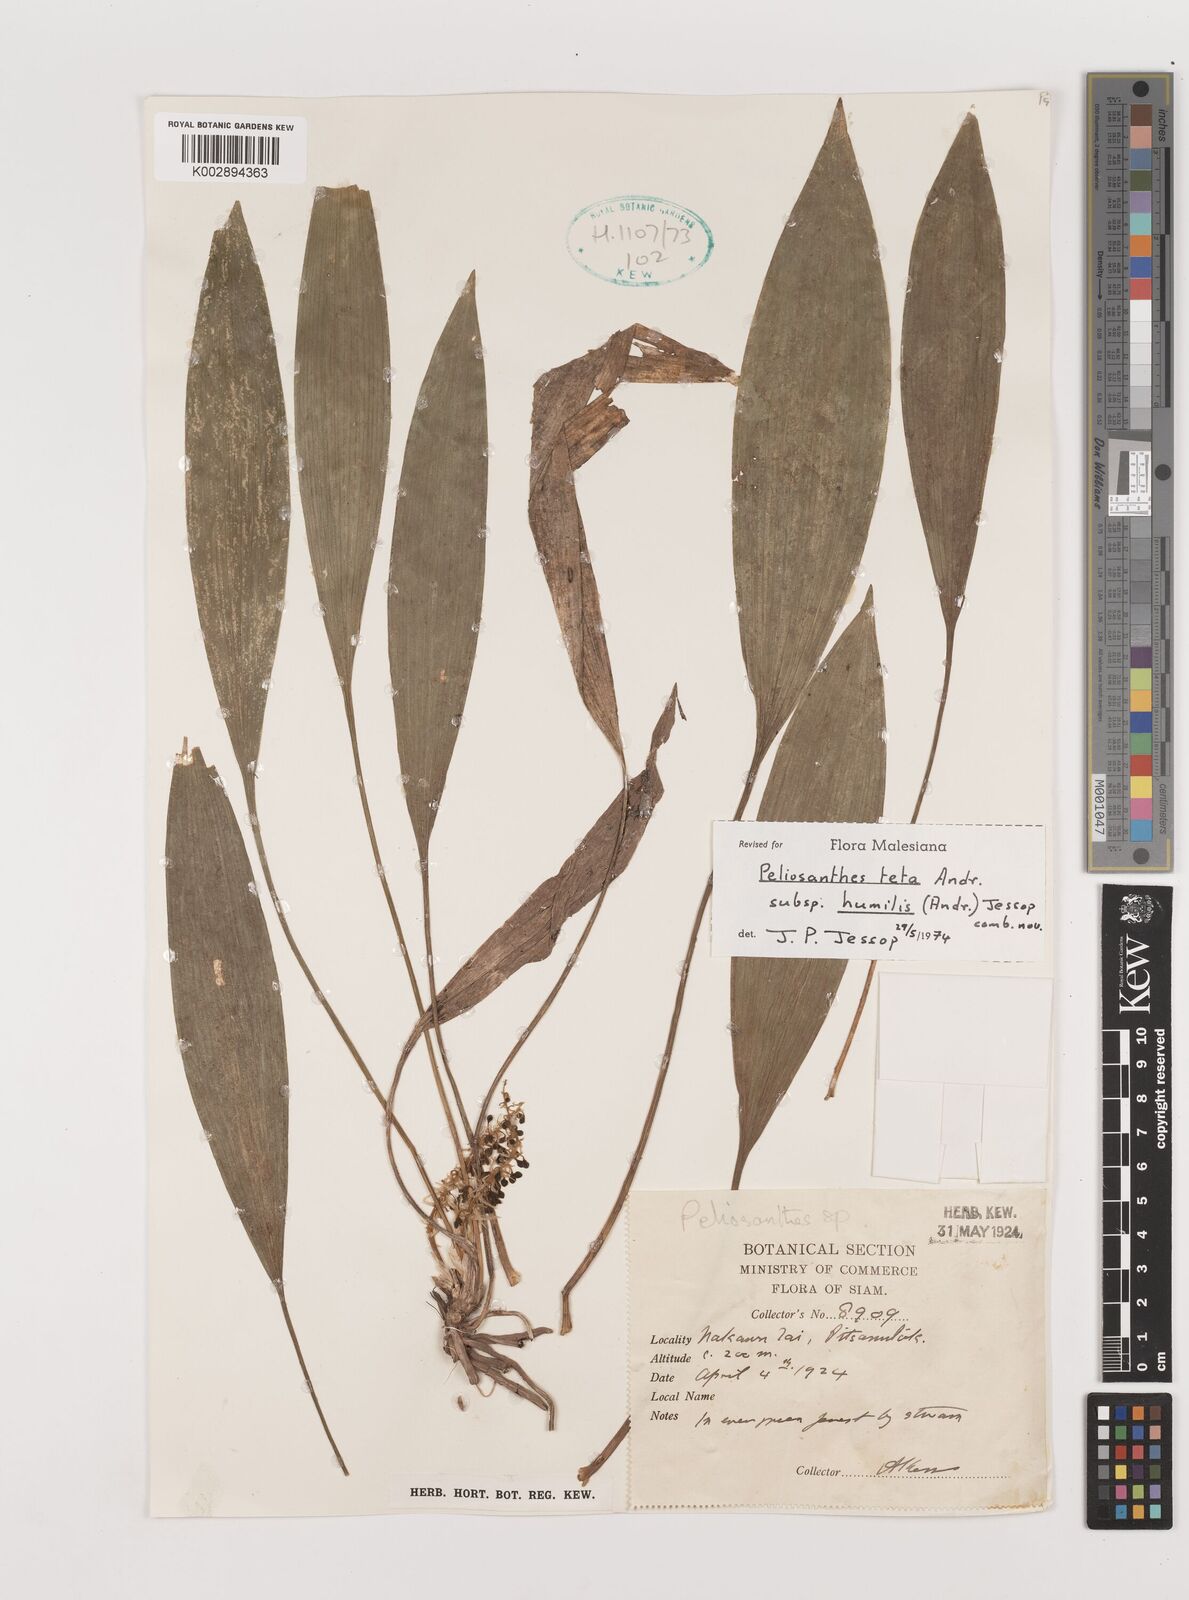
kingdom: Plantae
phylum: Tracheophyta
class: Liliopsida
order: Asparagales
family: Asparagaceae
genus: Peliosanthes
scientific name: Peliosanthes teta
